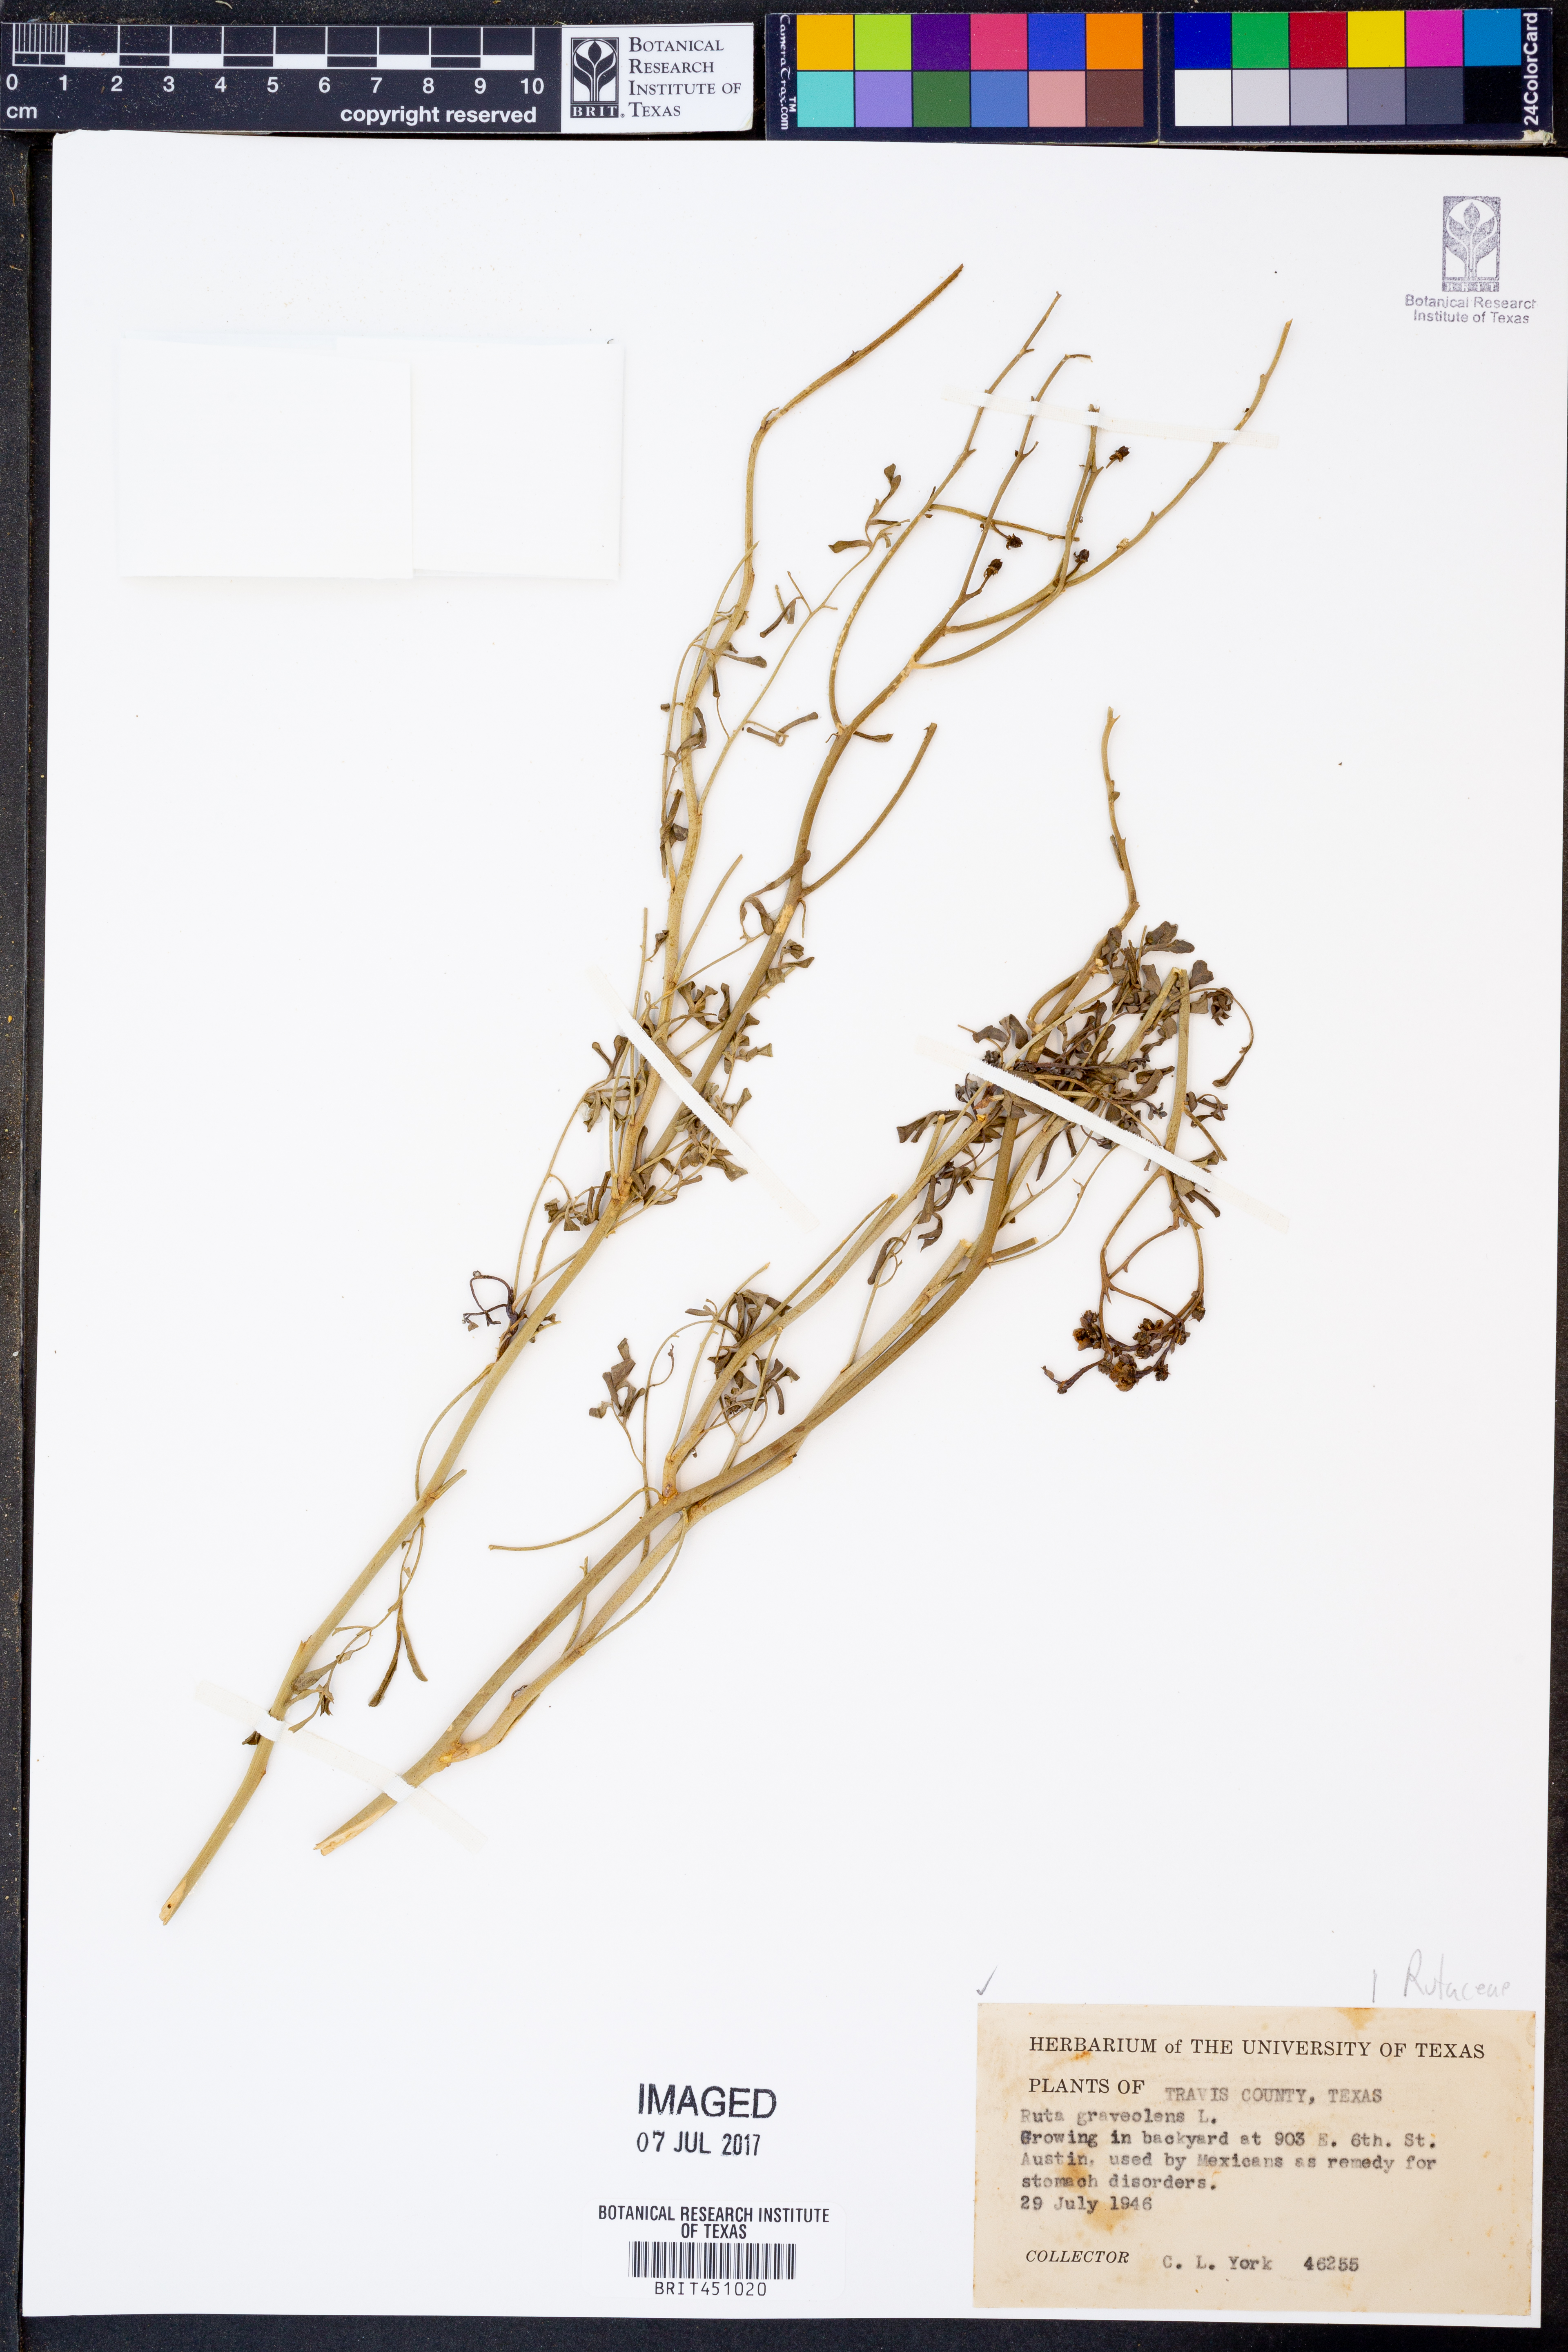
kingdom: Plantae
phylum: Tracheophyta
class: Magnoliopsida
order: Sapindales
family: Rutaceae
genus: Ruta
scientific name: Ruta graveolens
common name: Common rue
